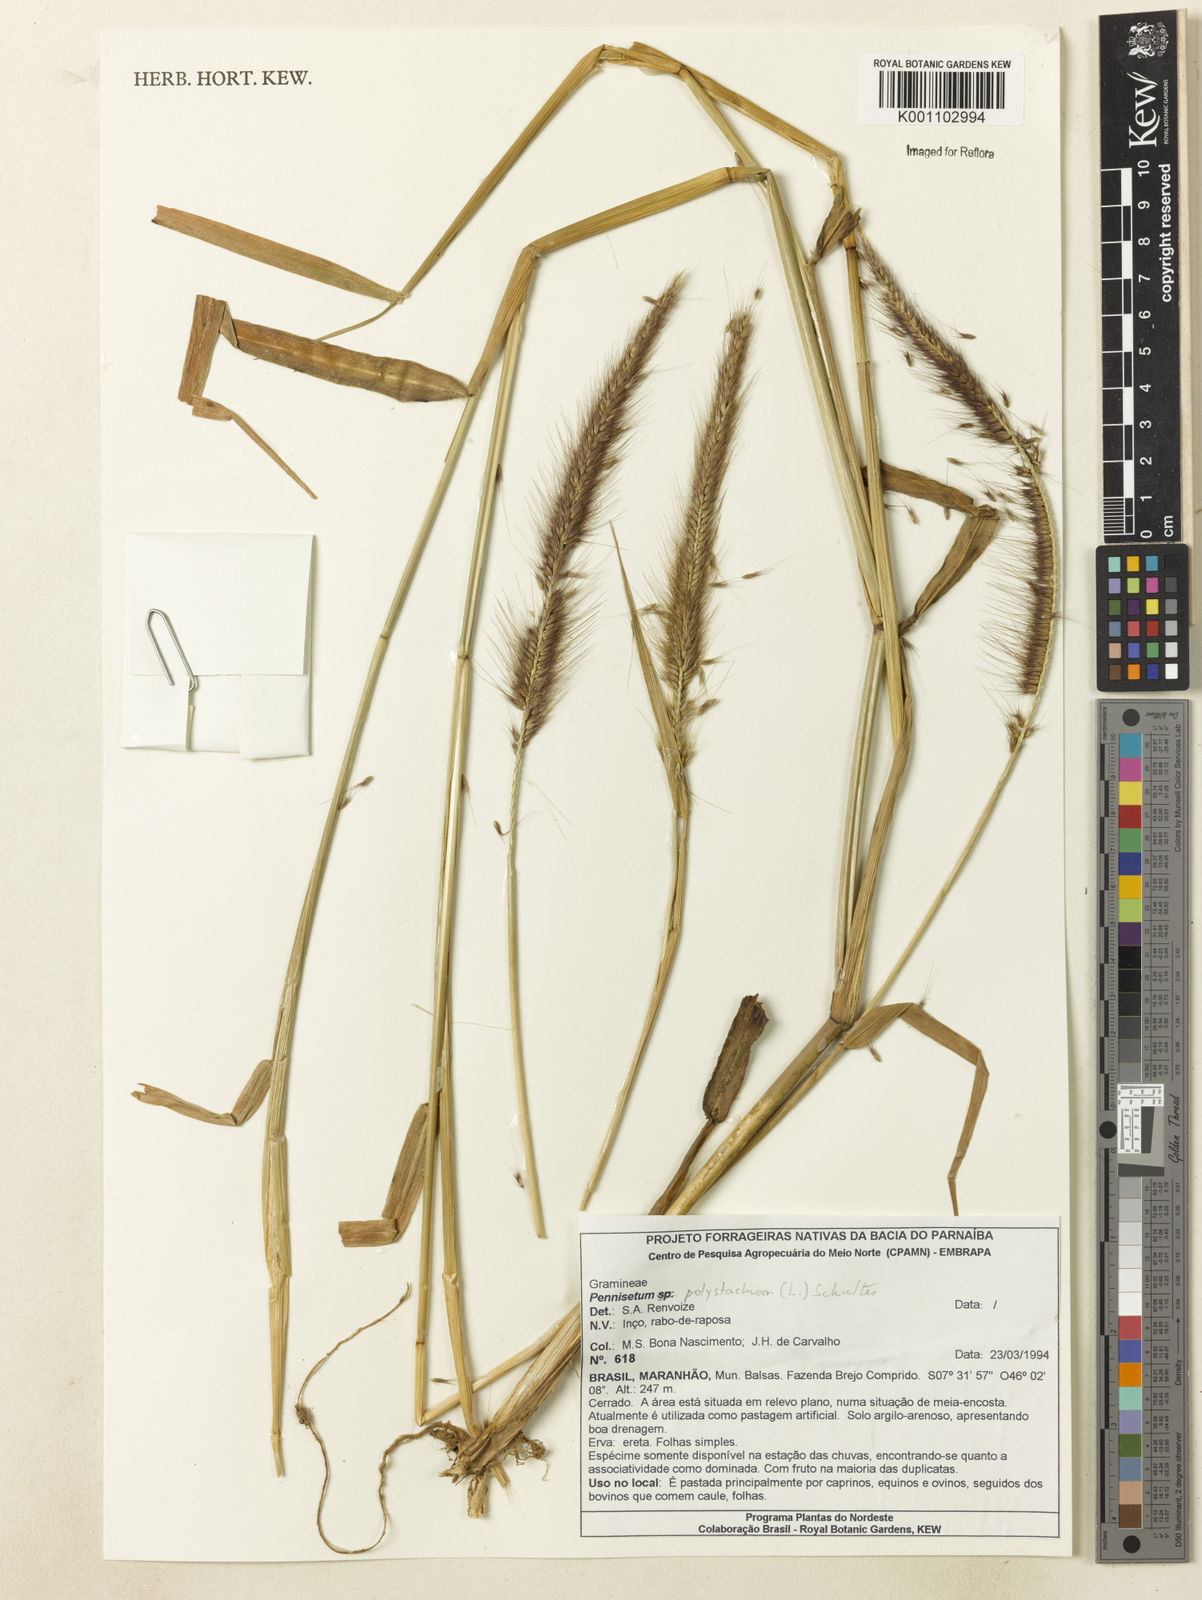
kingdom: Plantae
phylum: Tracheophyta
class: Liliopsida
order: Poales
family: Poaceae
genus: Setaria
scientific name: Setaria parviflora
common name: Knotroot bristle-grass
